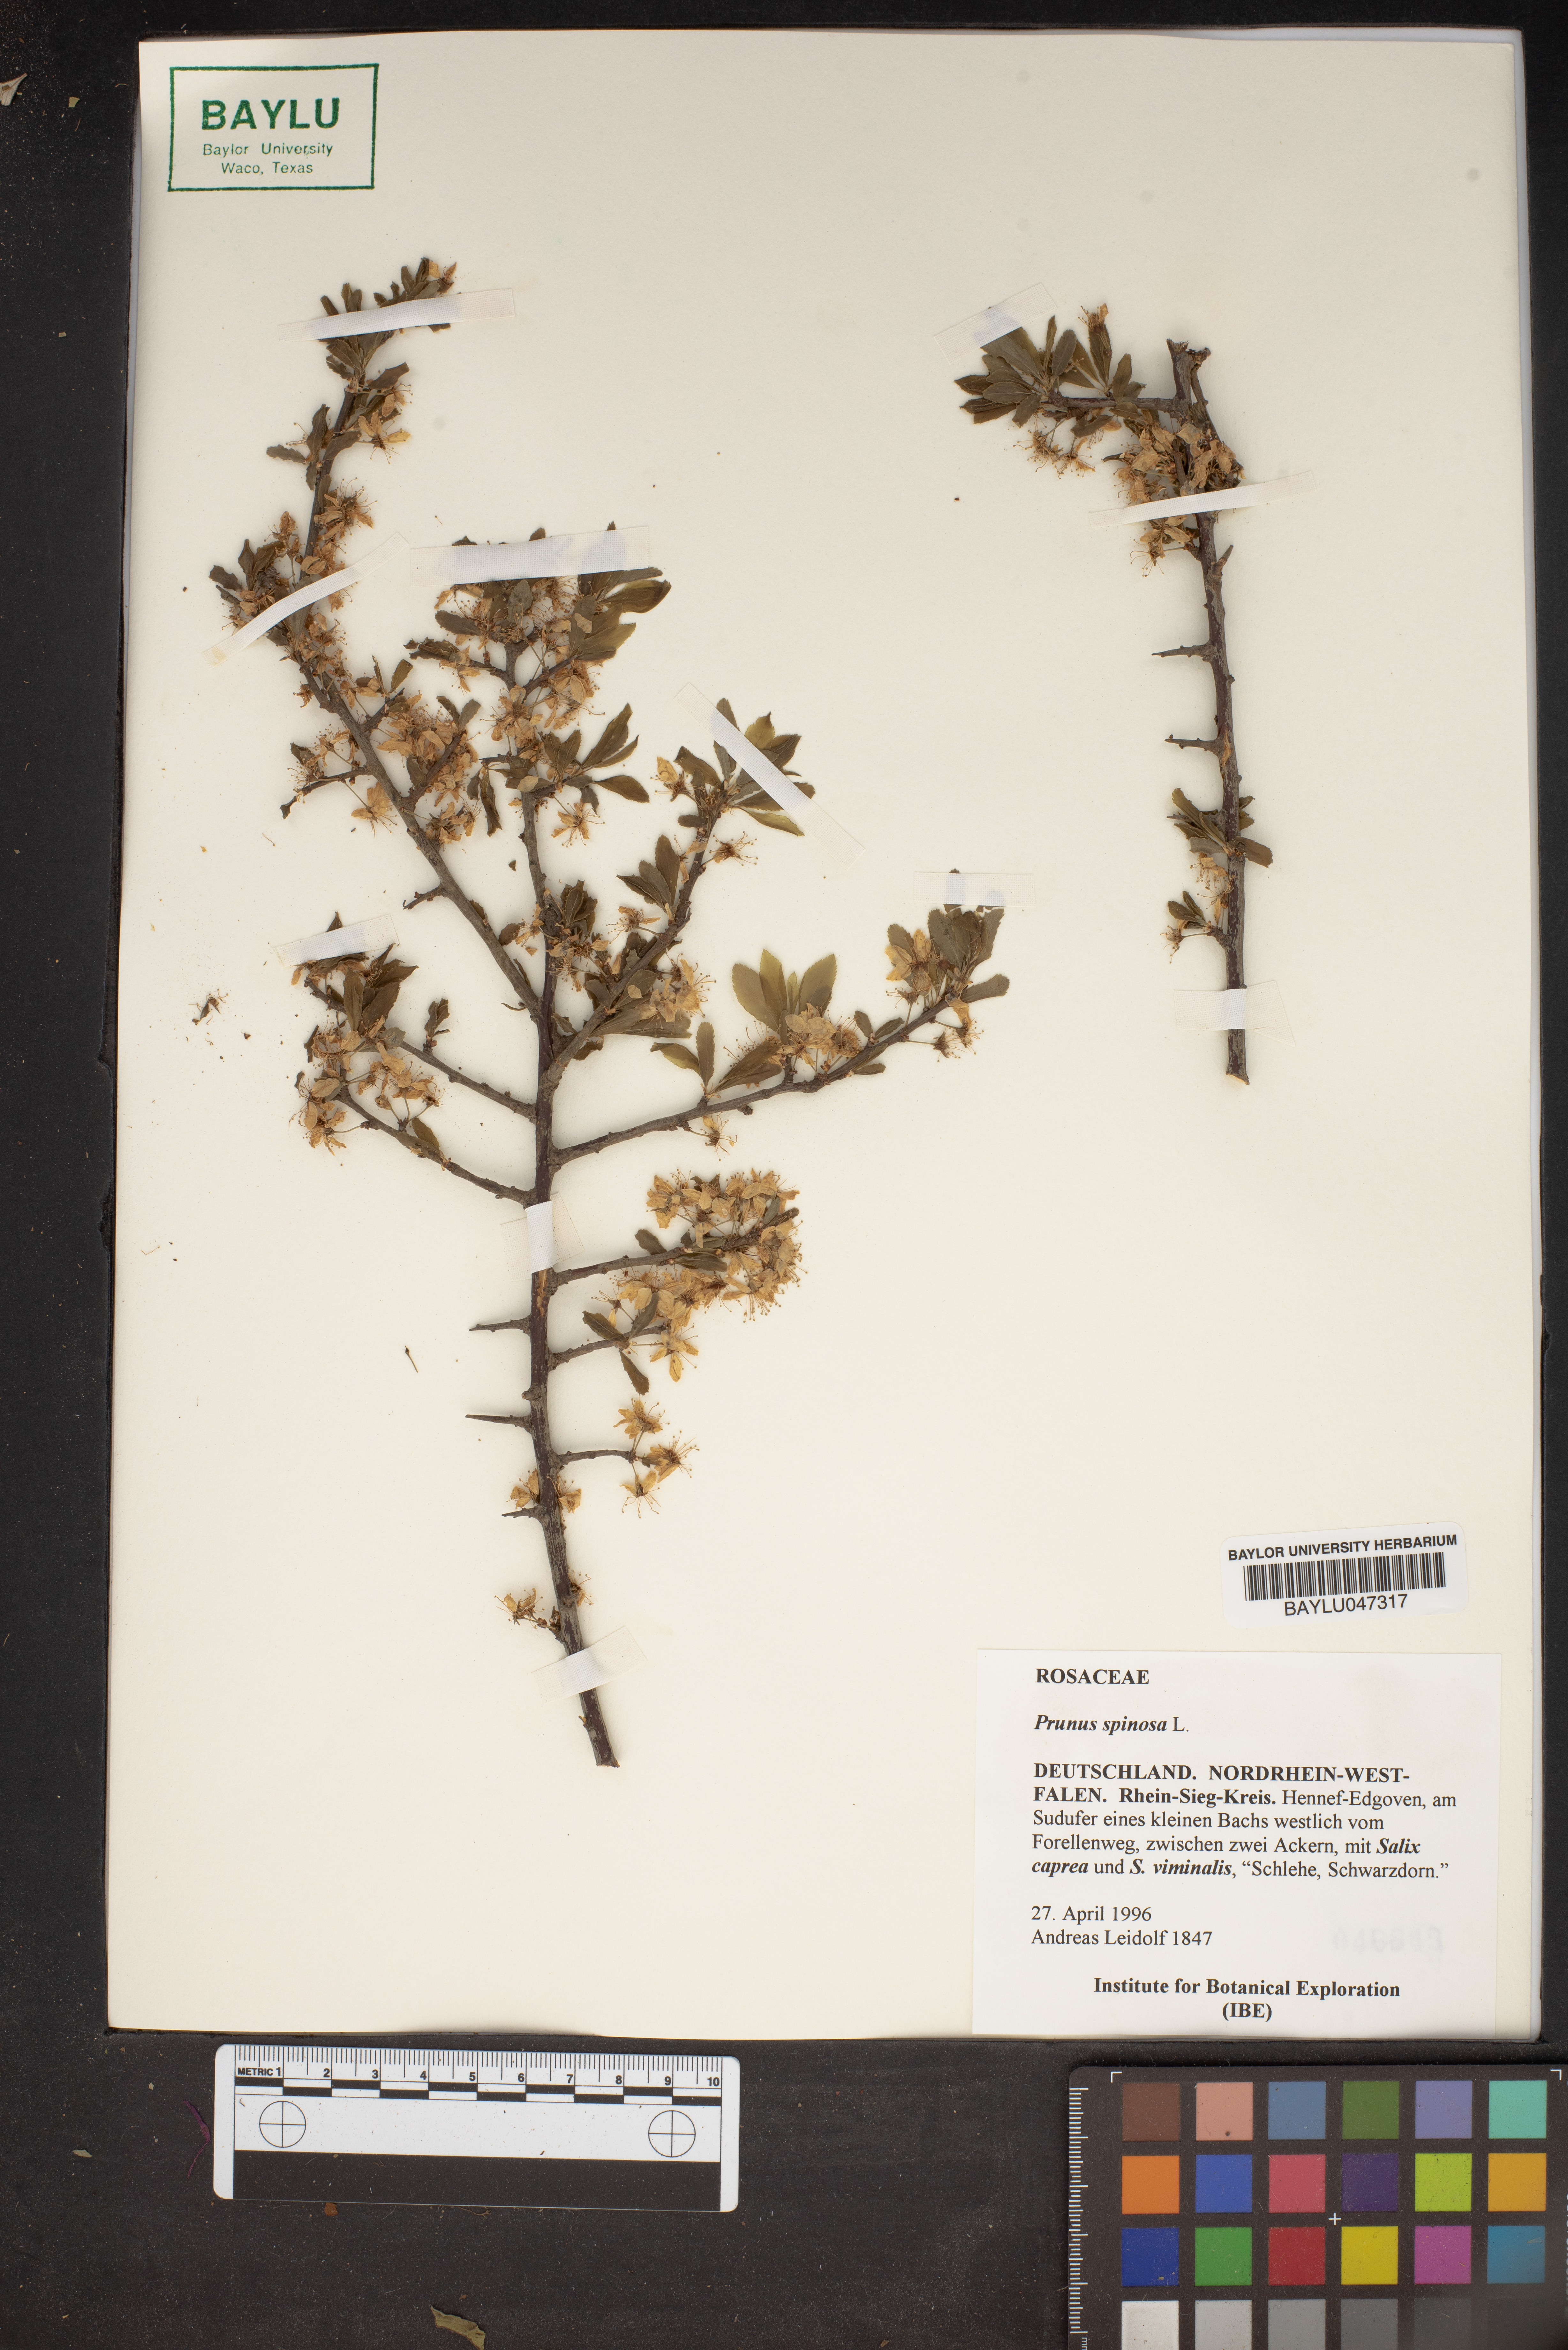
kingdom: Plantae
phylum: Tracheophyta
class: Magnoliopsida
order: Rosales
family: Rosaceae
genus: Prunus
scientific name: Prunus spinosa
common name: Blackthorn
